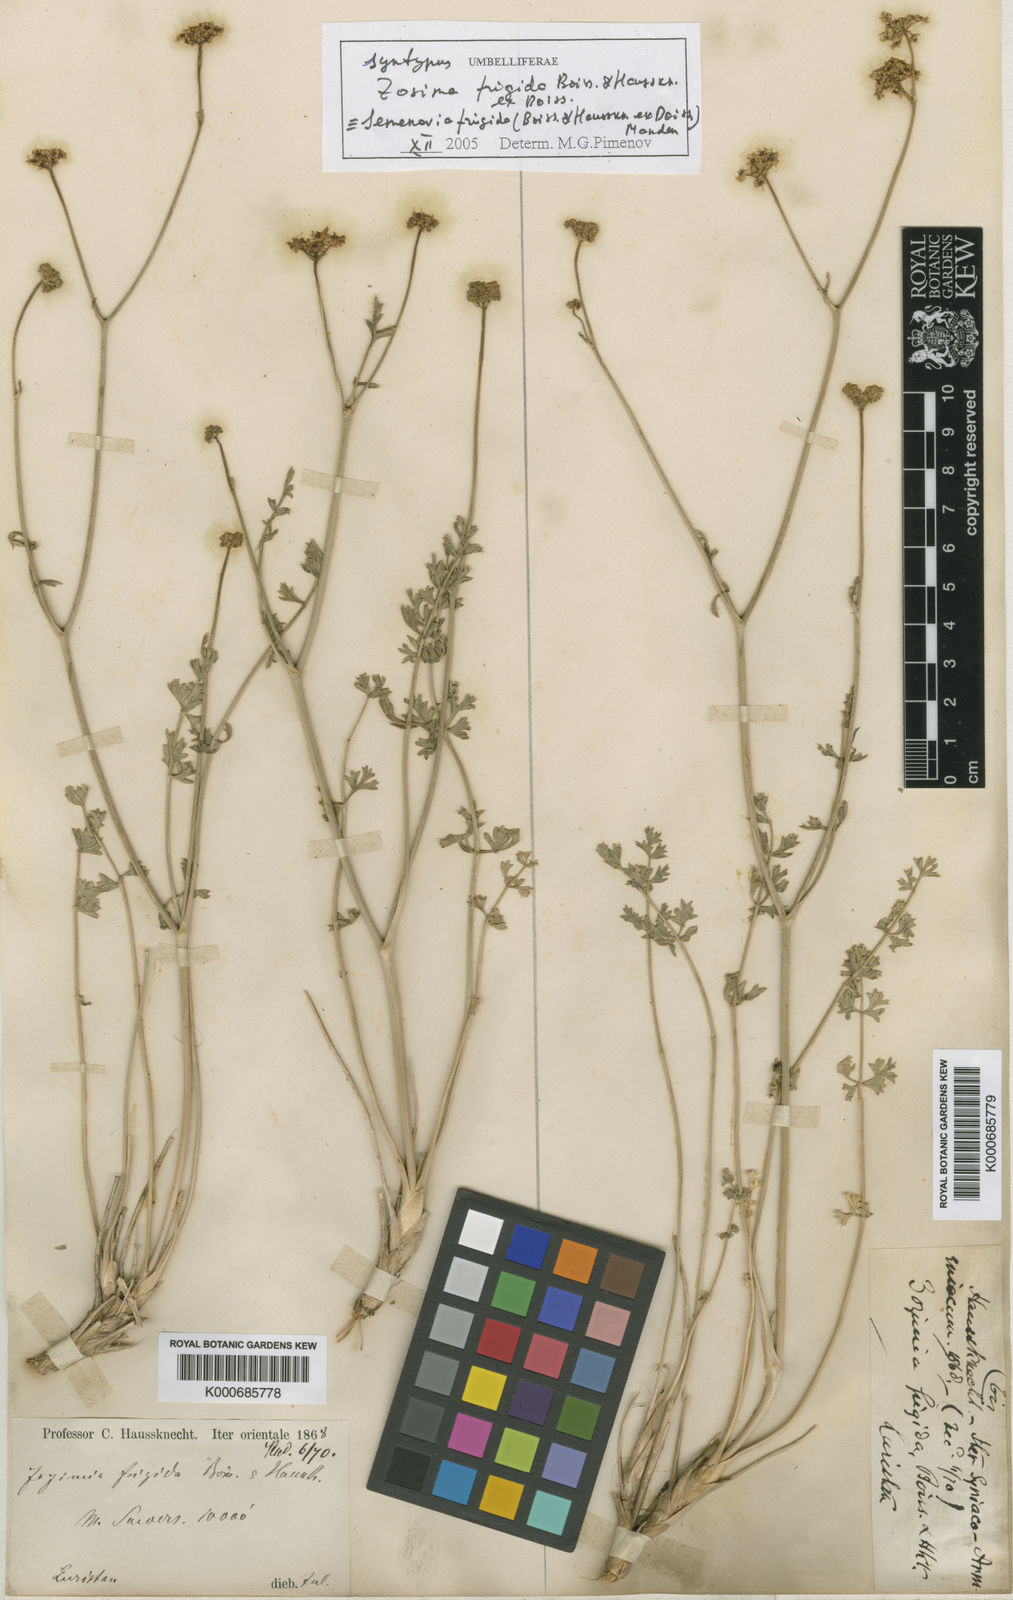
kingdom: Plantae
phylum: Tracheophyta
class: Magnoliopsida
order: Apiales
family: Apiaceae
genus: Semenovia
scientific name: Semenovia frigida
